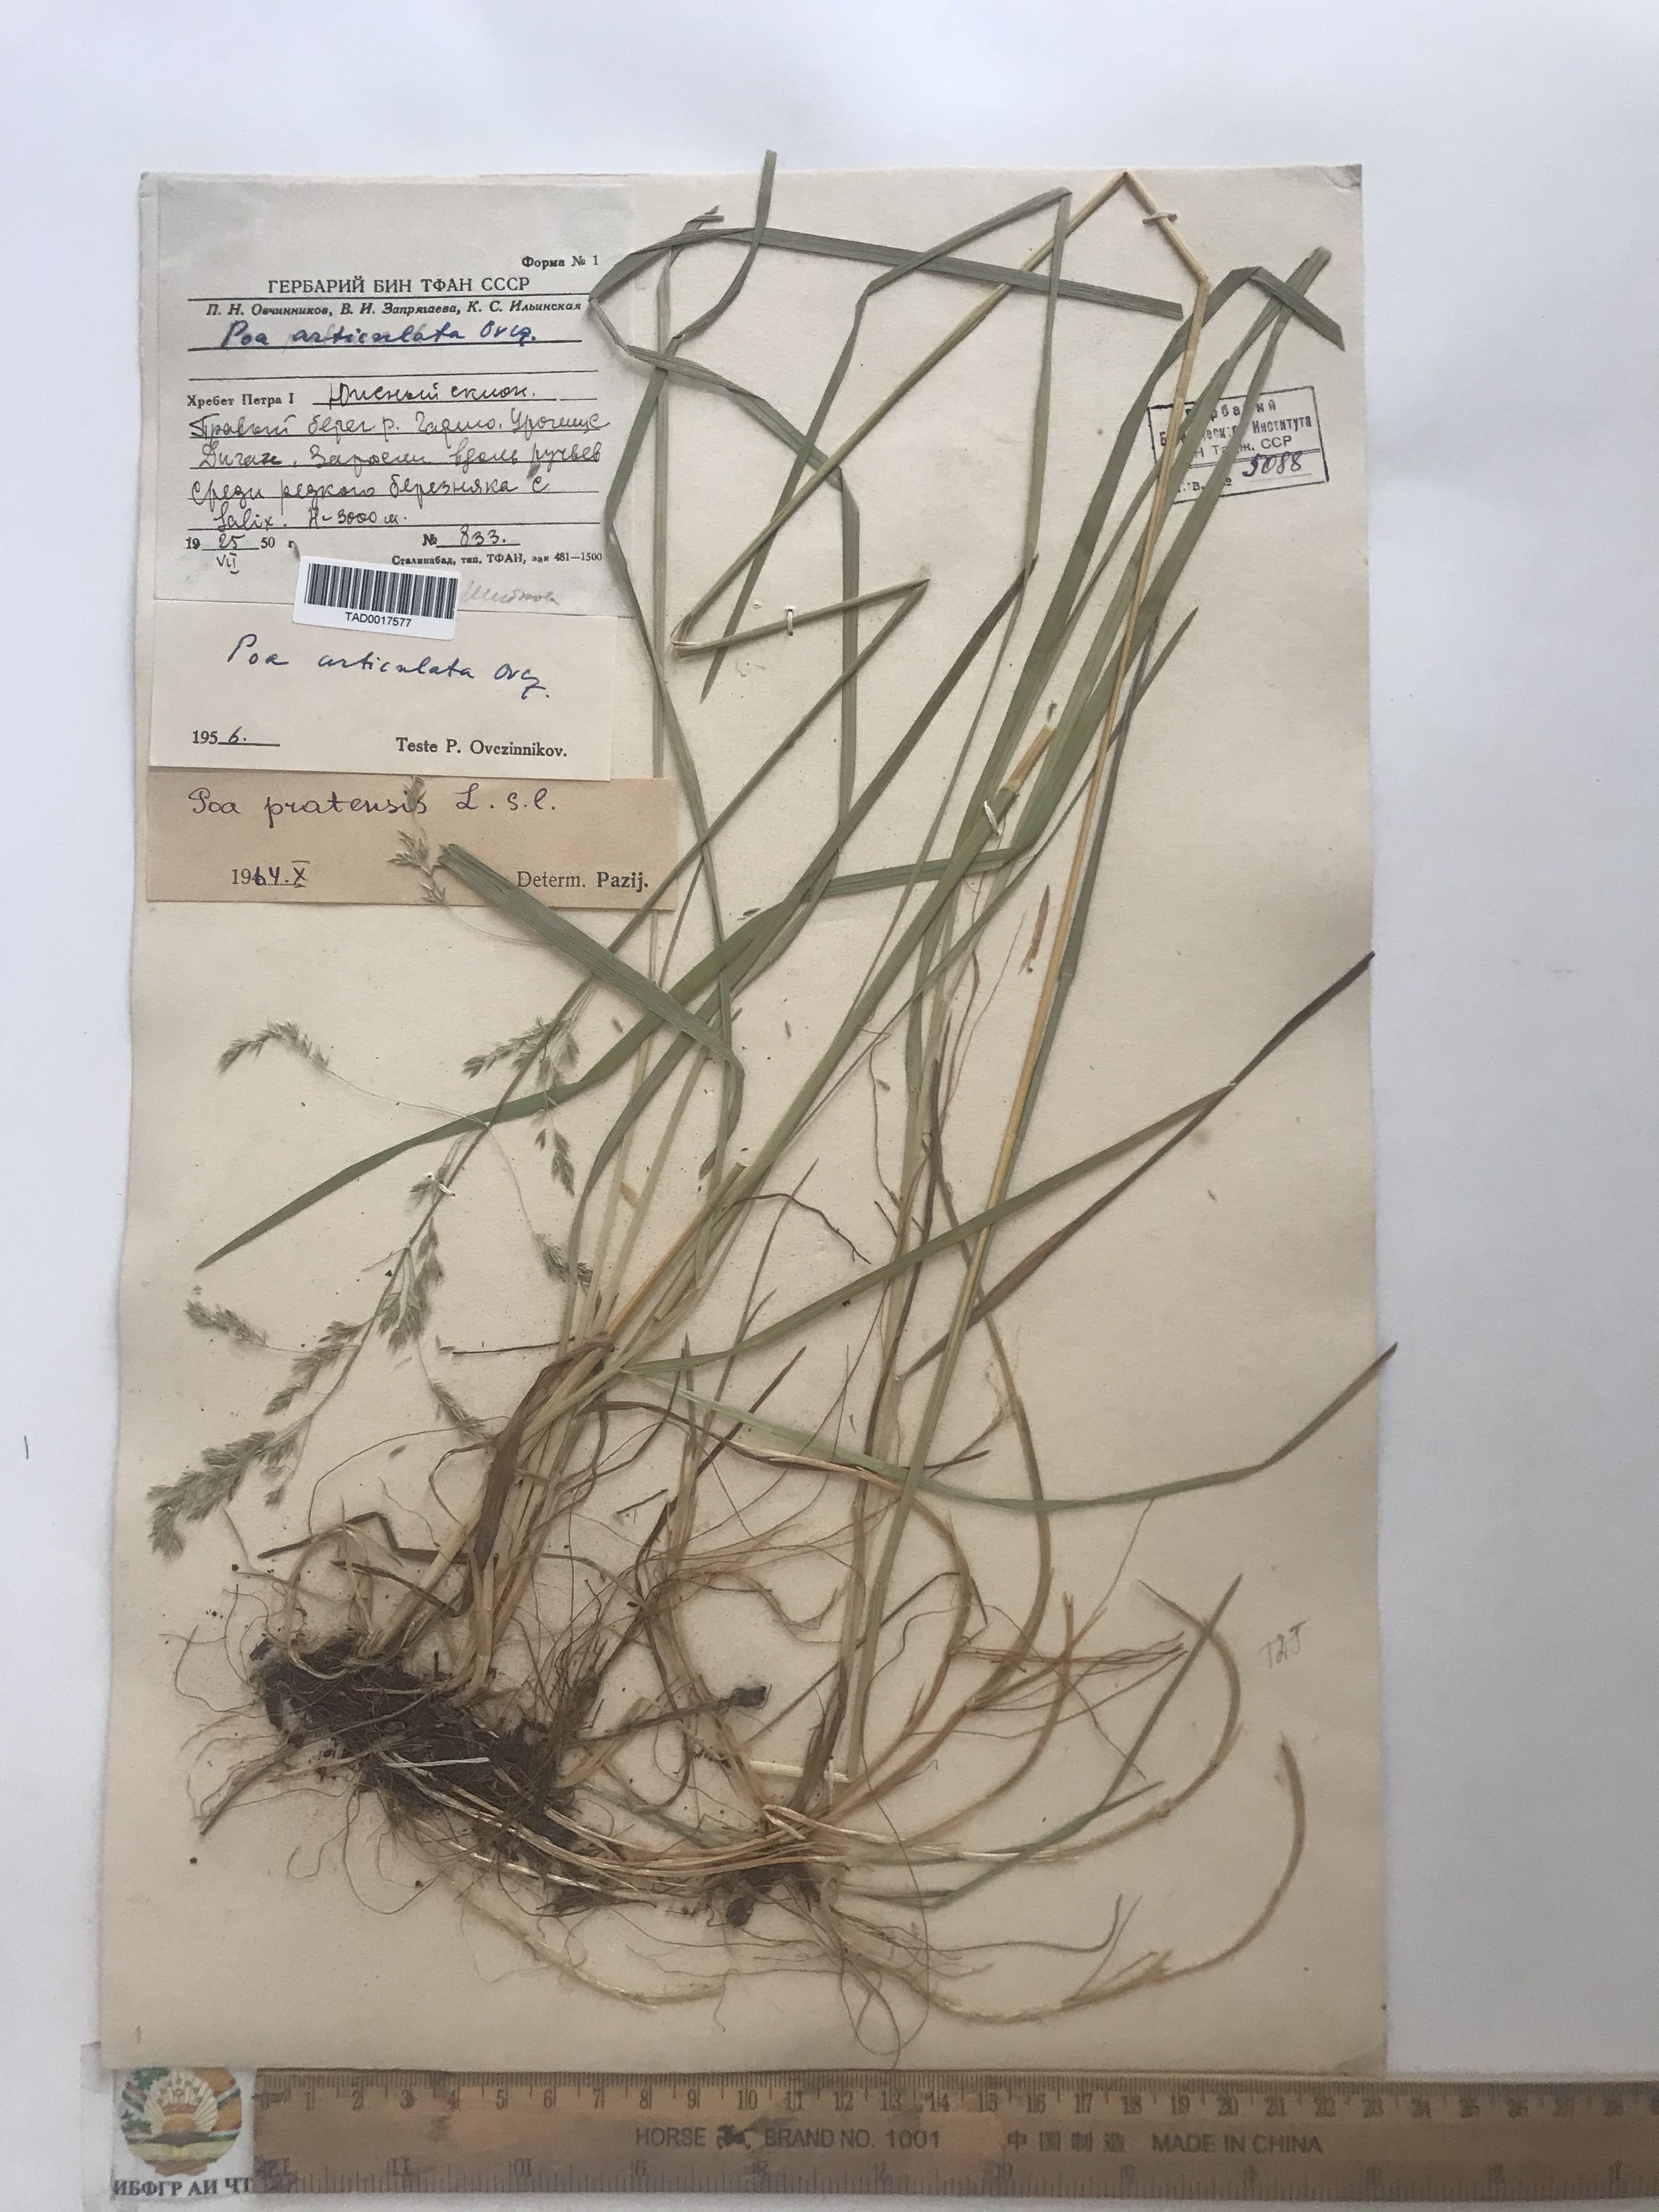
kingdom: Plantae
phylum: Tracheophyta
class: Liliopsida
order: Poales
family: Poaceae
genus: Poa
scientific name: Poa pratensis
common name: Kentucky bluegrass
